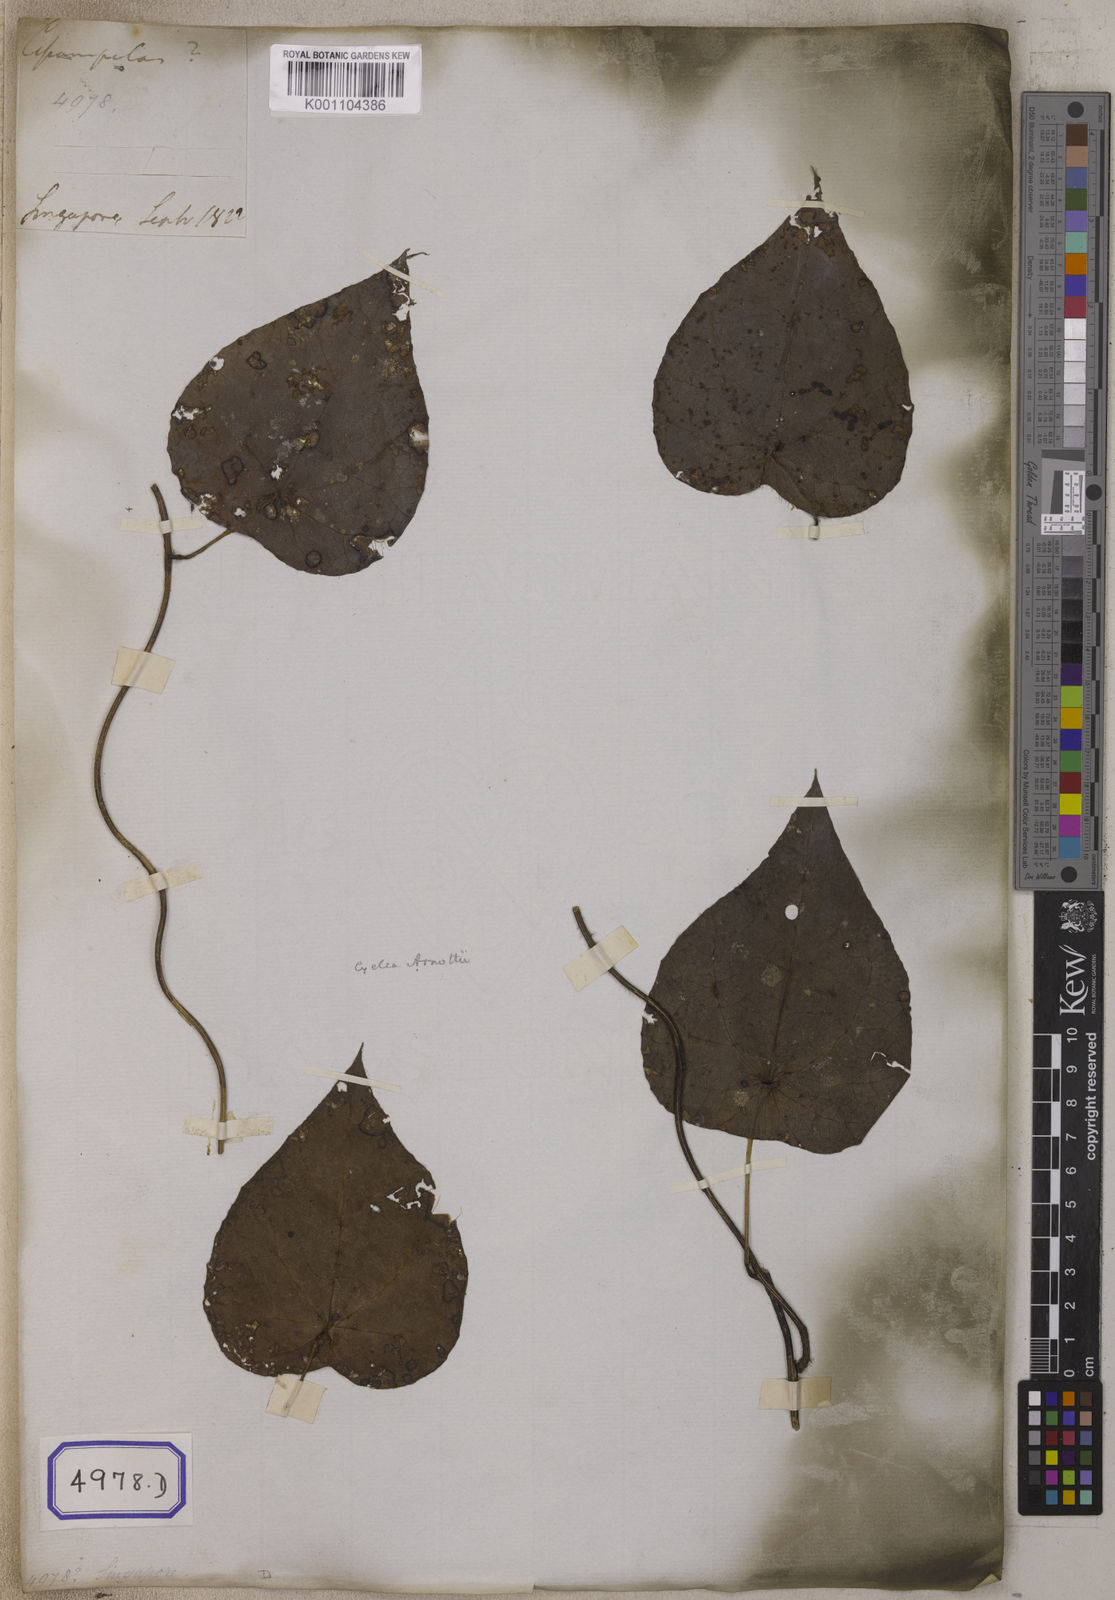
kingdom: Plantae
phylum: Tracheophyta
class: Magnoliopsida
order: Ranunculales
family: Menispermaceae
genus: Cissampelos
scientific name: Cissampelos
